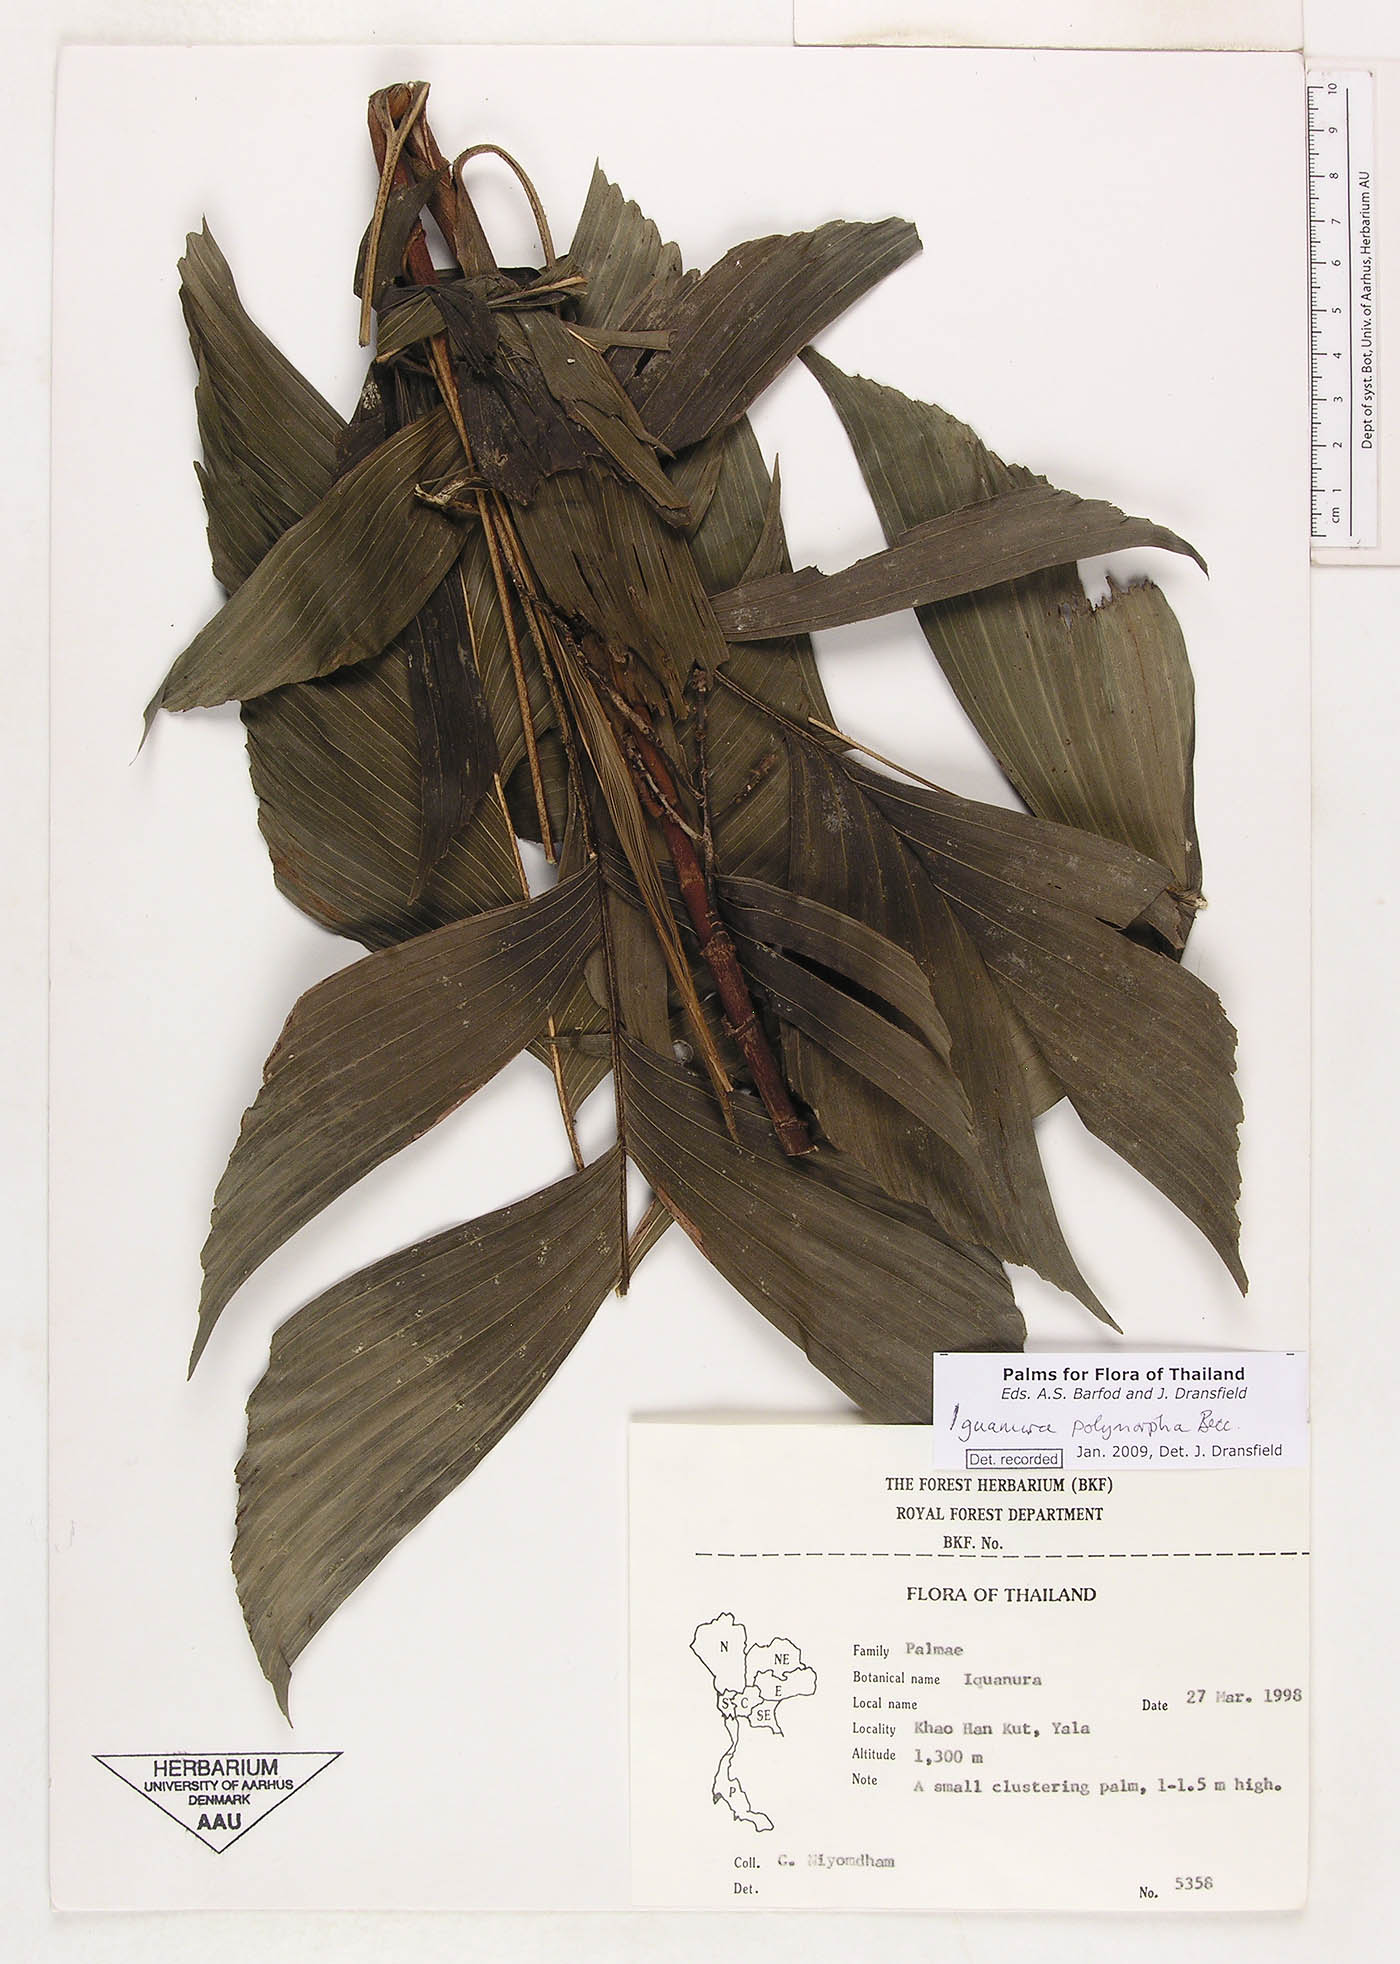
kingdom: Plantae
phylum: Tracheophyta
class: Liliopsida
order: Arecales
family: Arecaceae
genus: Iguanura
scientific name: Iguanura polymorpha
